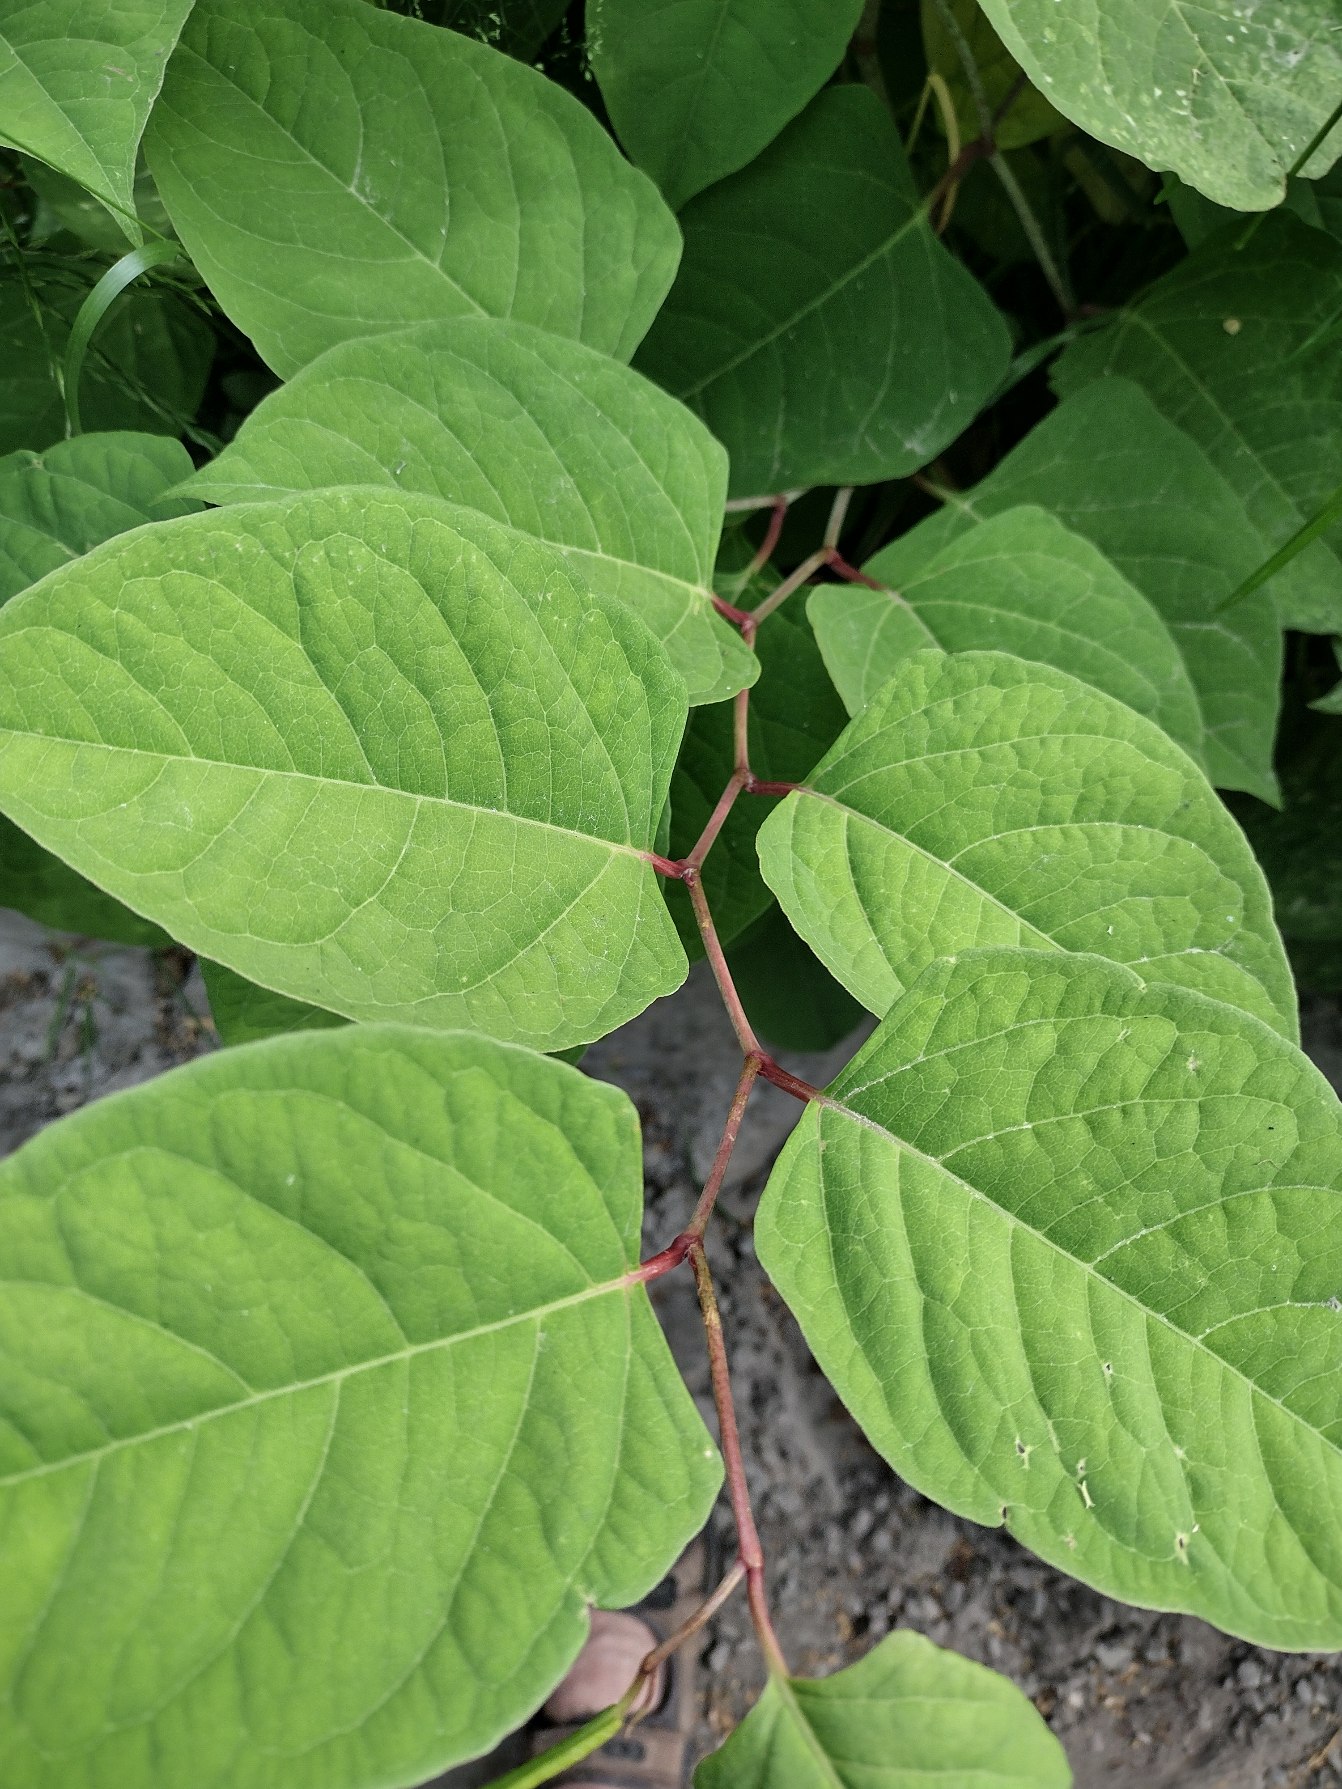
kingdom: Plantae
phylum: Tracheophyta
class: Magnoliopsida
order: Caryophyllales
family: Polygonaceae
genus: Reynoutria
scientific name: Reynoutria japonica
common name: Japan-pileurt
